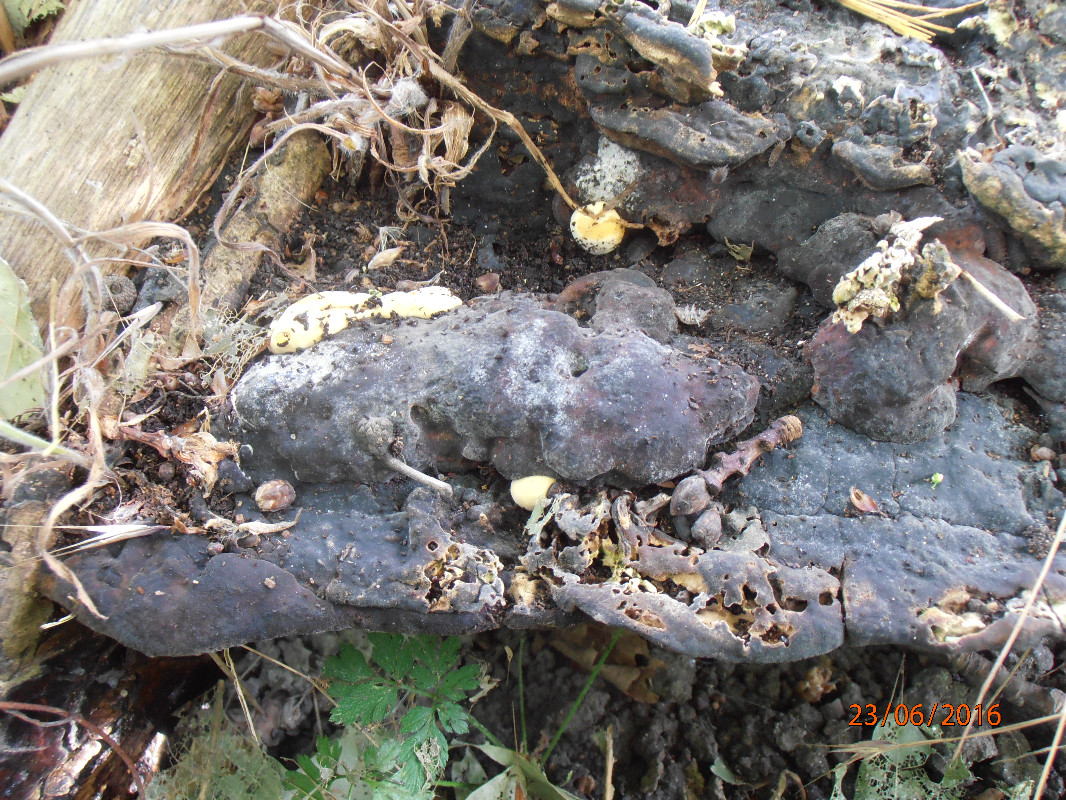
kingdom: Fungi
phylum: Basidiomycota
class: Agaricomycetes
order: Polyporales
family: Polyporaceae
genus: Vanderbylia
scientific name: Vanderbylia fraxinea
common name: stor kanelporesvamp
